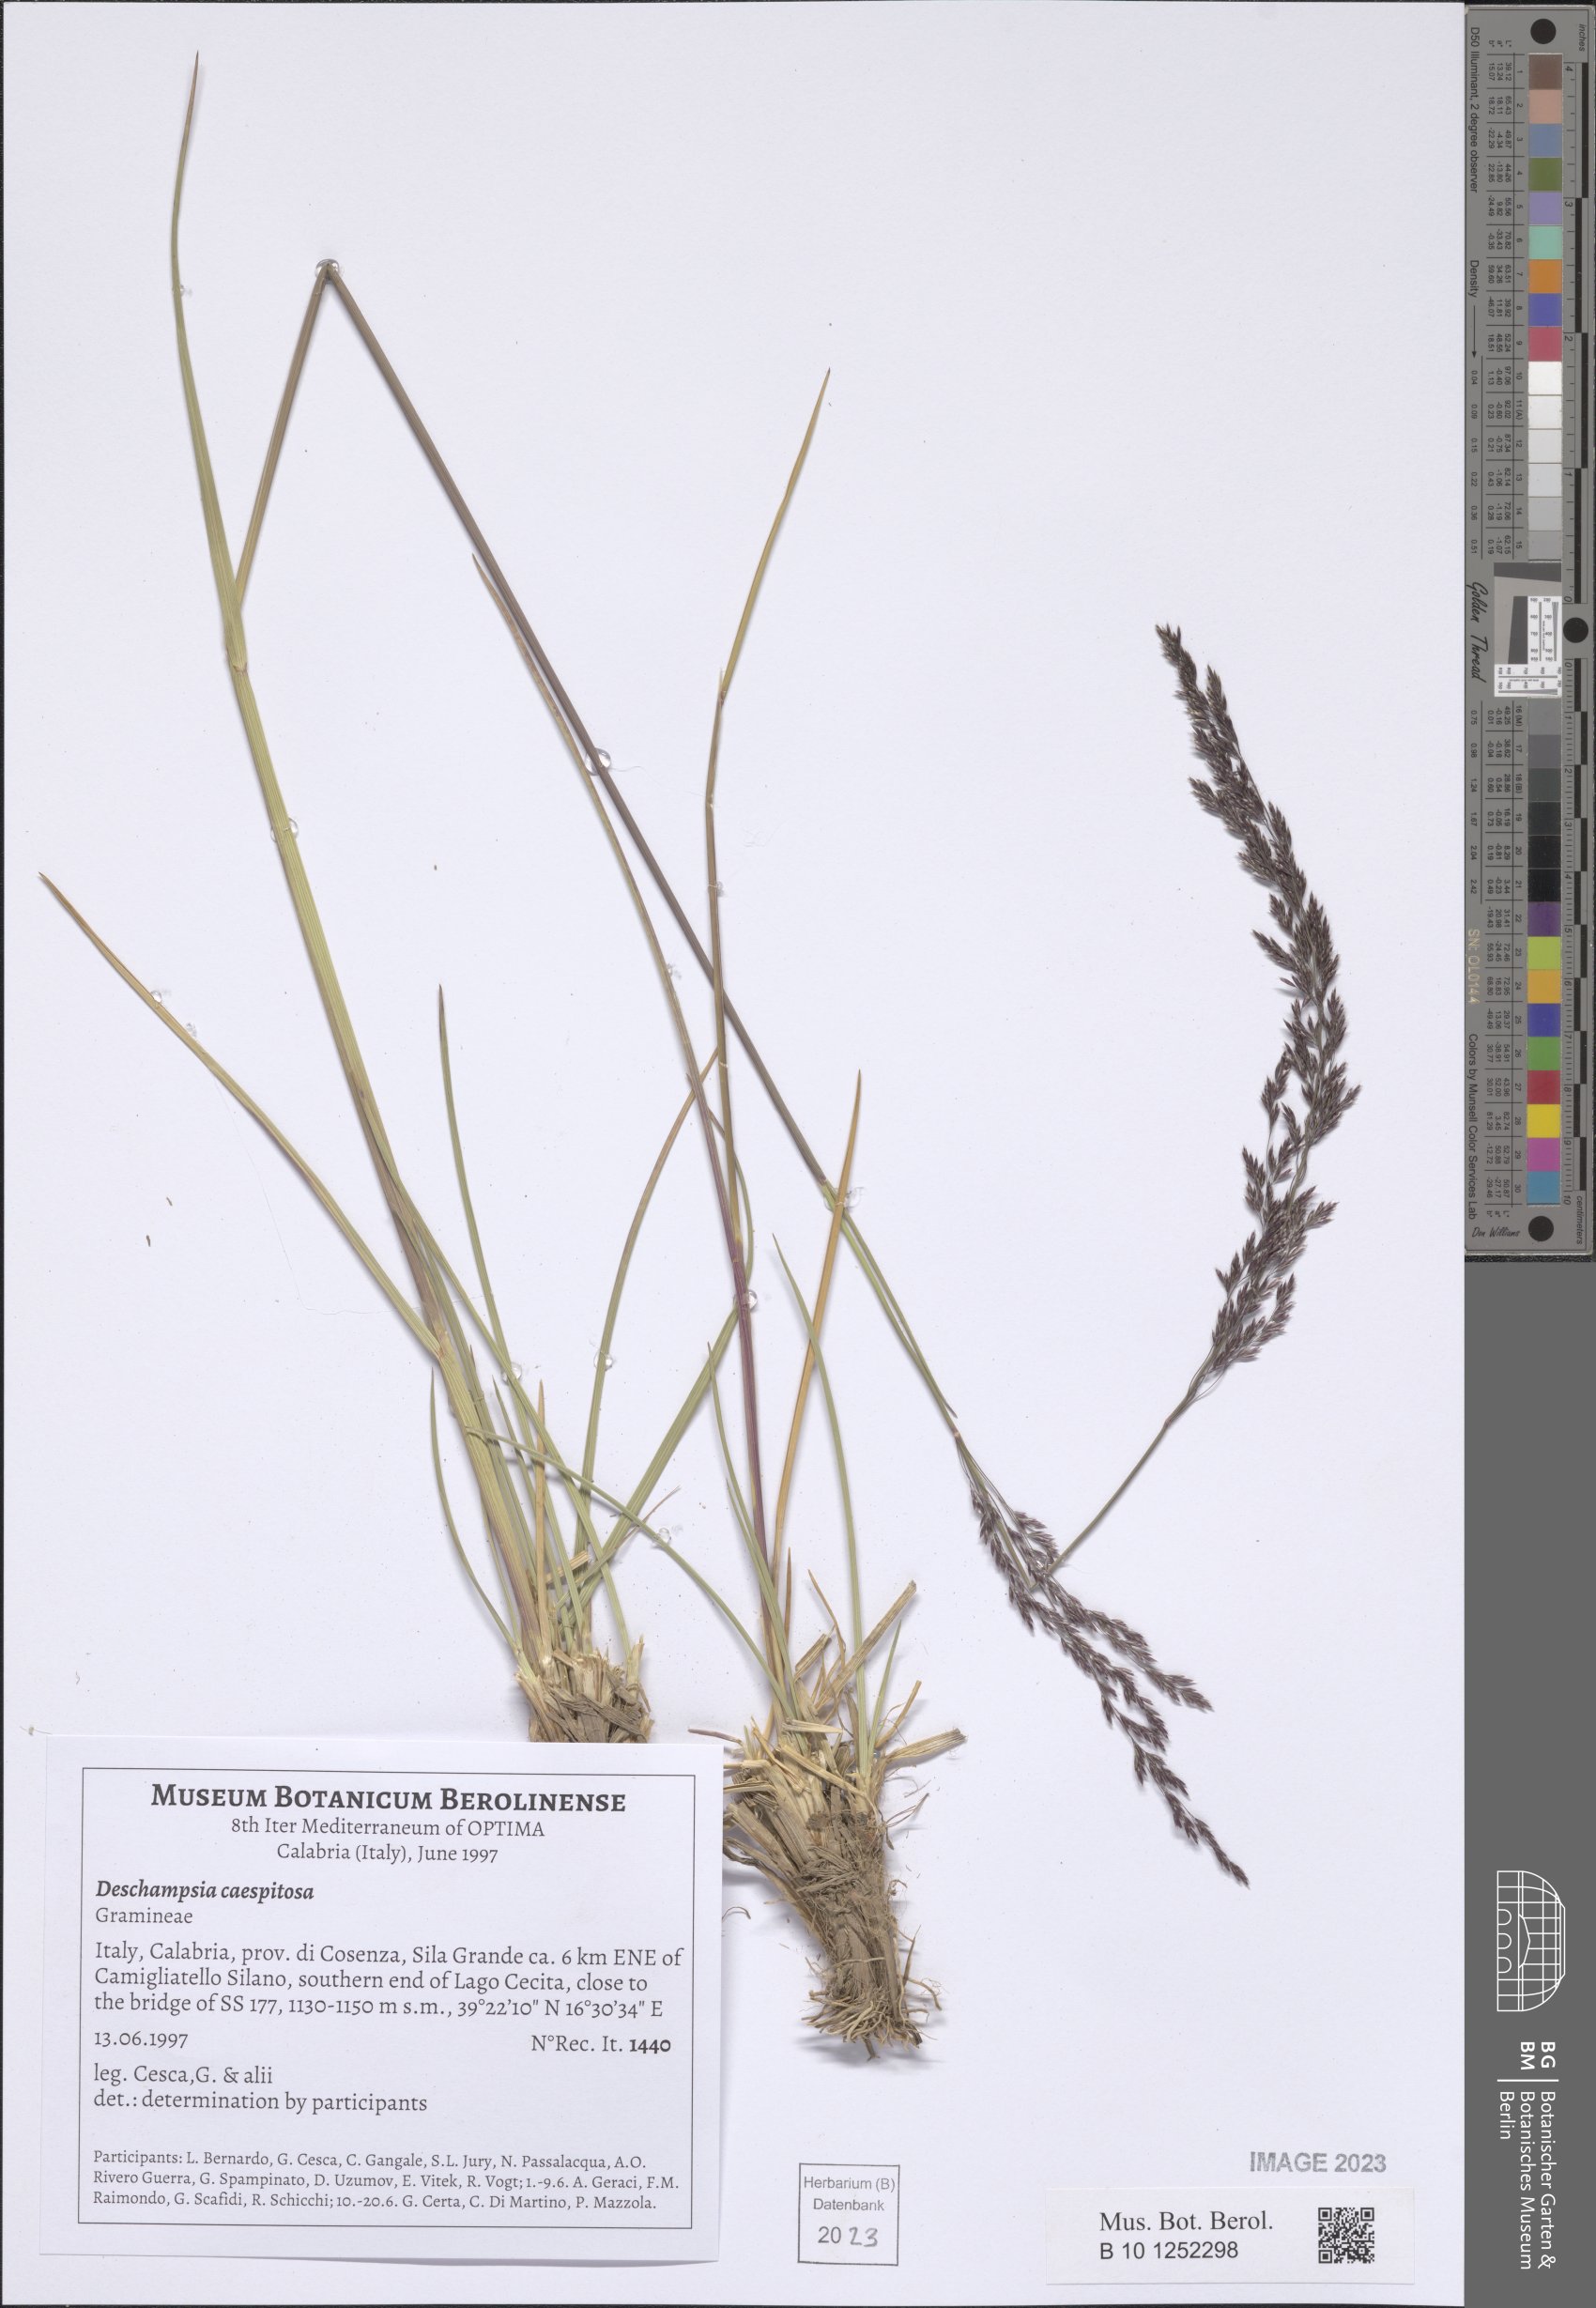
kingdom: Plantae
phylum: Tracheophyta
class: Liliopsida
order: Poales
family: Poaceae
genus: Deschampsia
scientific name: Deschampsia cespitosa
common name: Tufted hair-grass
